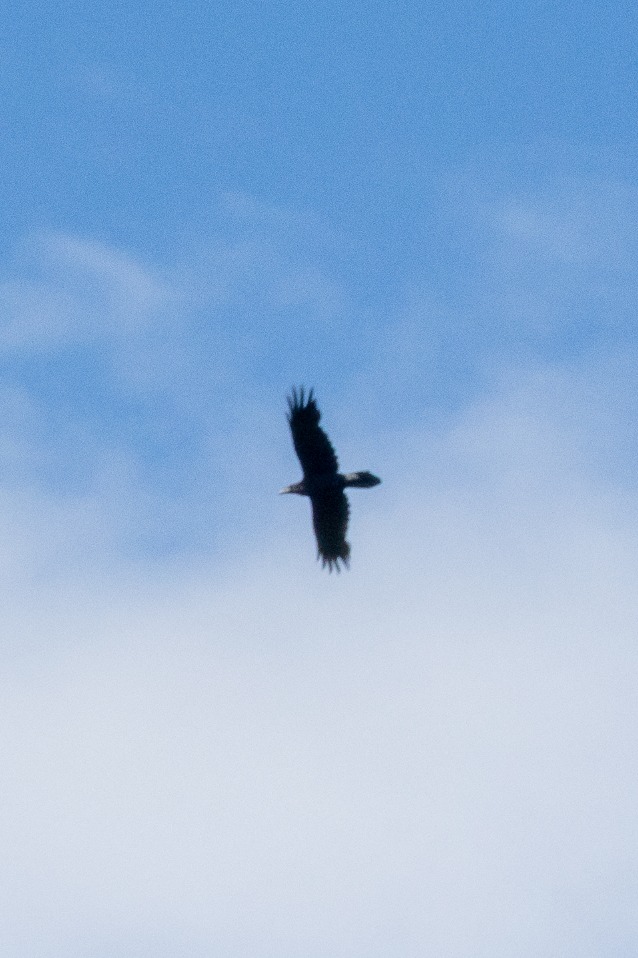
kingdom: Animalia
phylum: Chordata
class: Aves
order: Passeriformes
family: Corvidae
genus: Corvus
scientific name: Corvus corax
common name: Ravn
